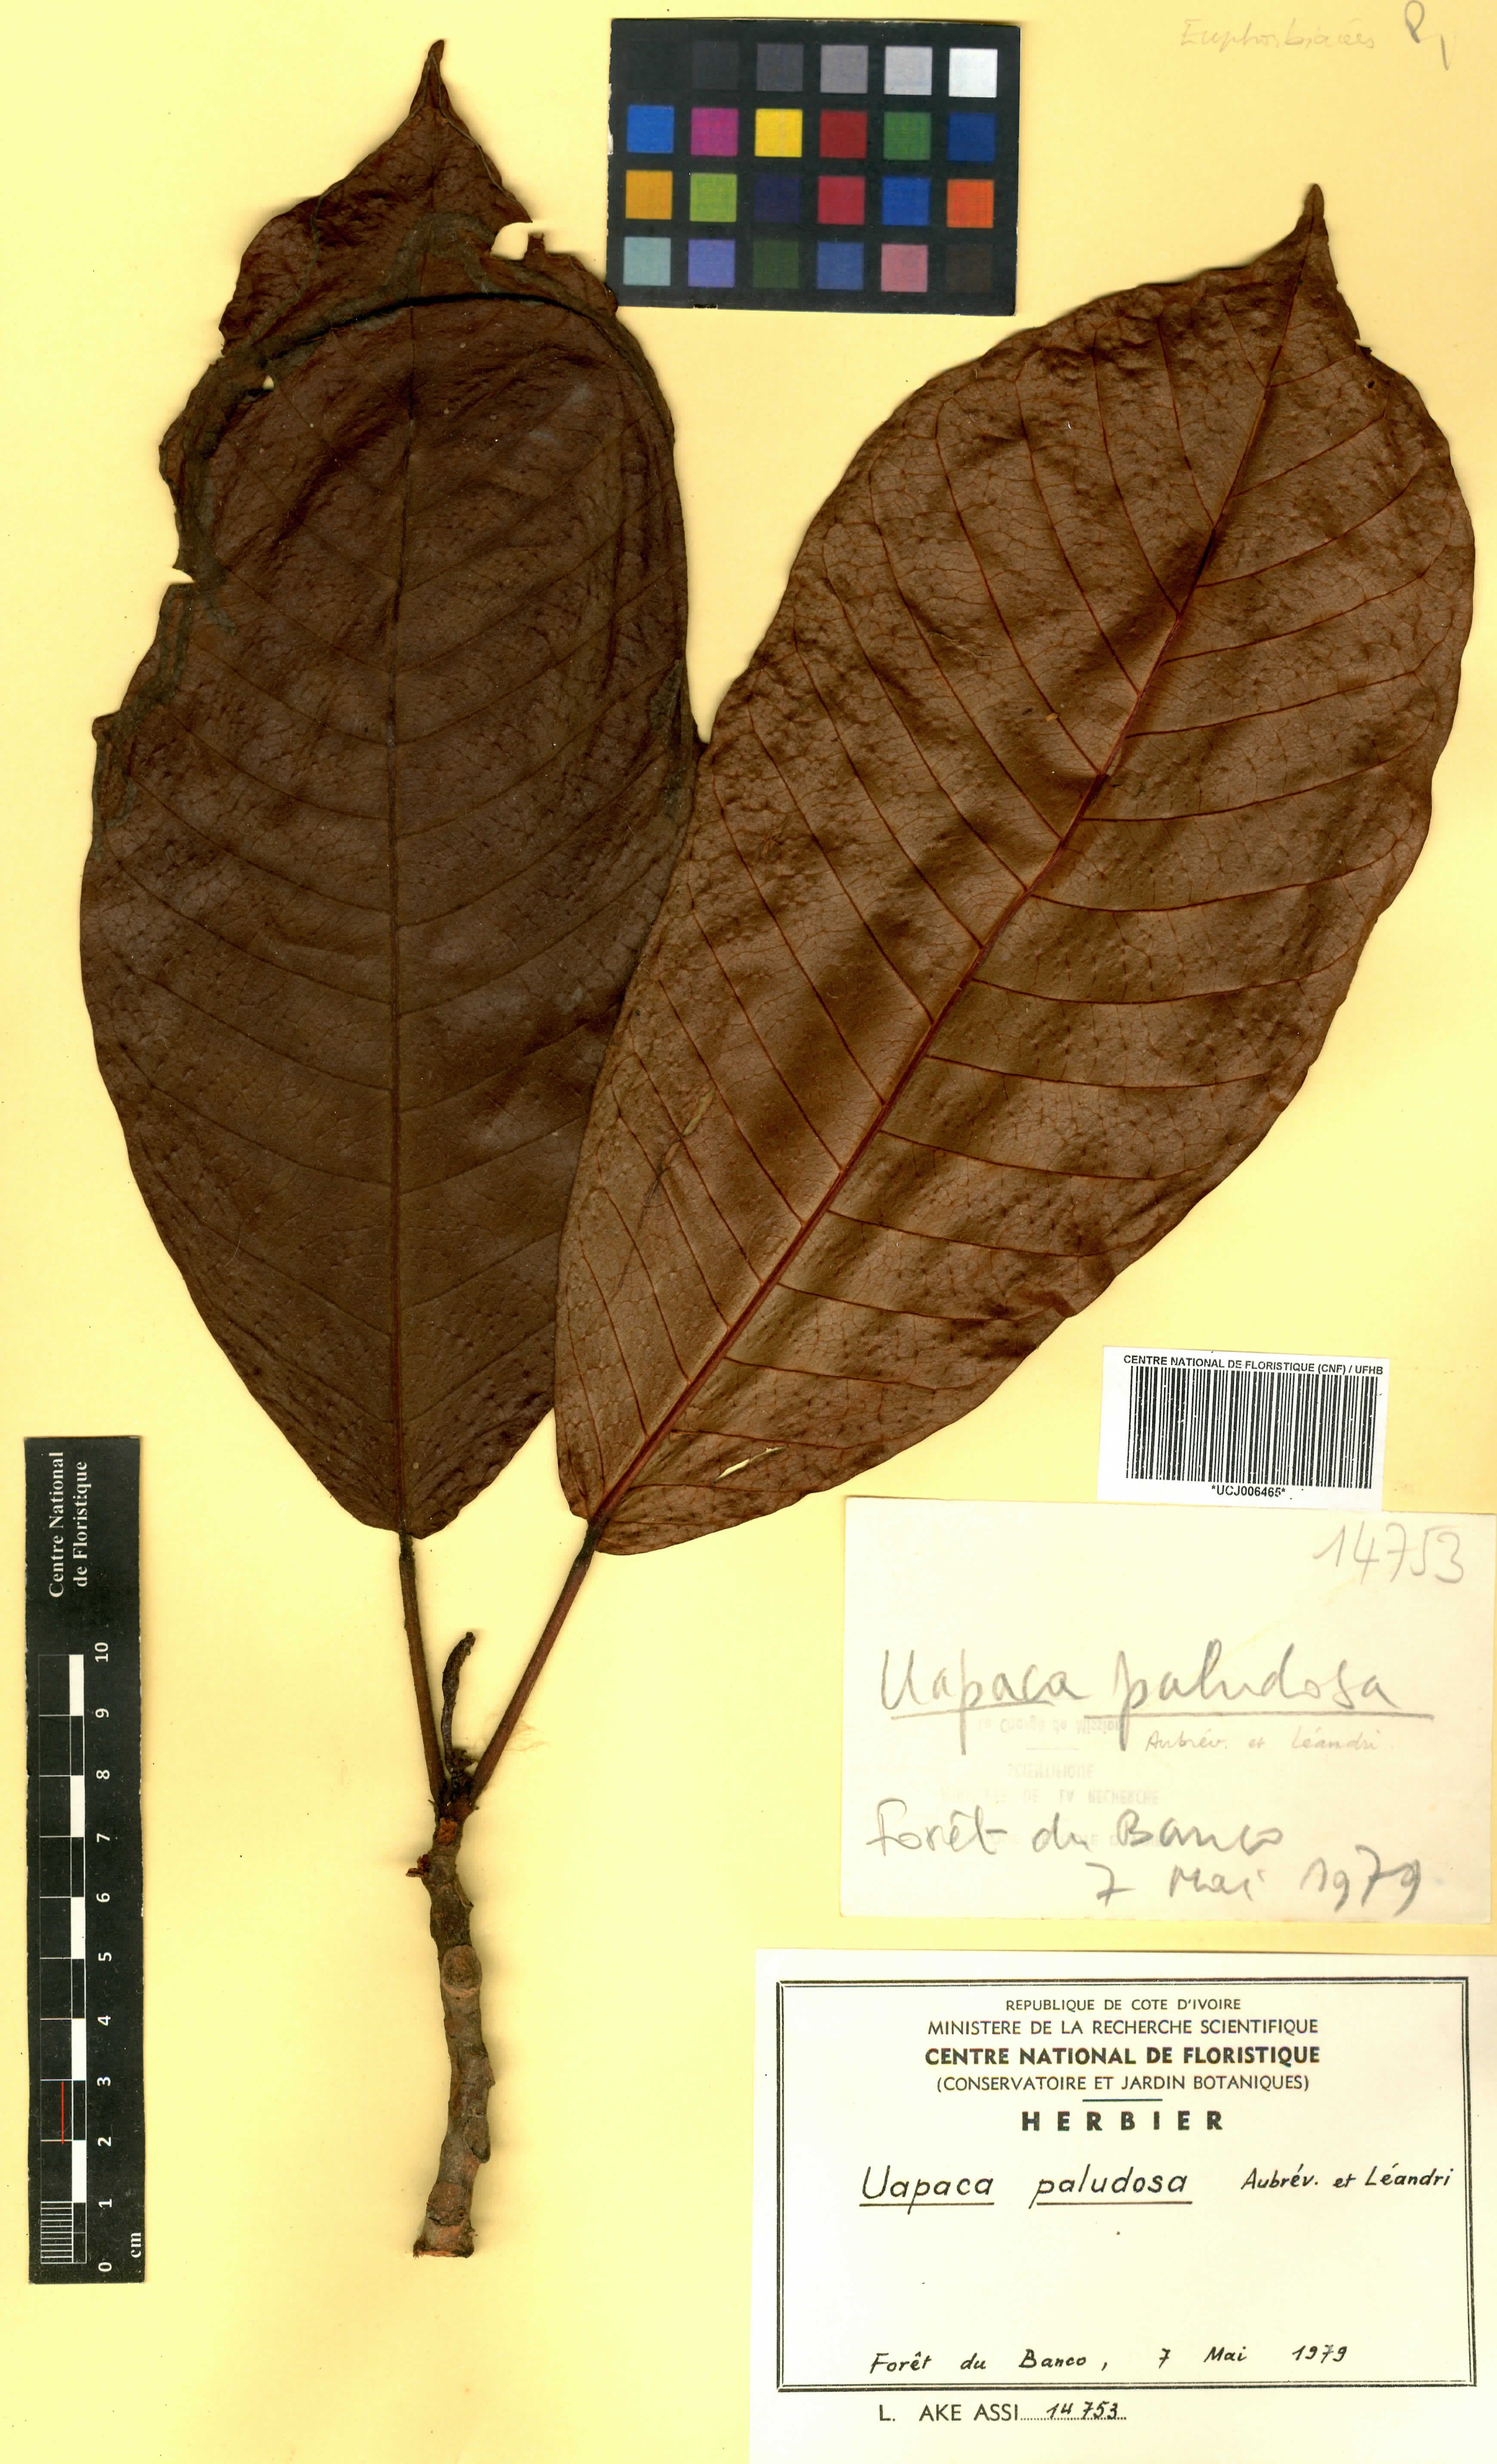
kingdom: Plantae
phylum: Tracheophyta
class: Magnoliopsida
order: Malpighiales
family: Phyllanthaceae
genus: Uapaca
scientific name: Uapaca mole
